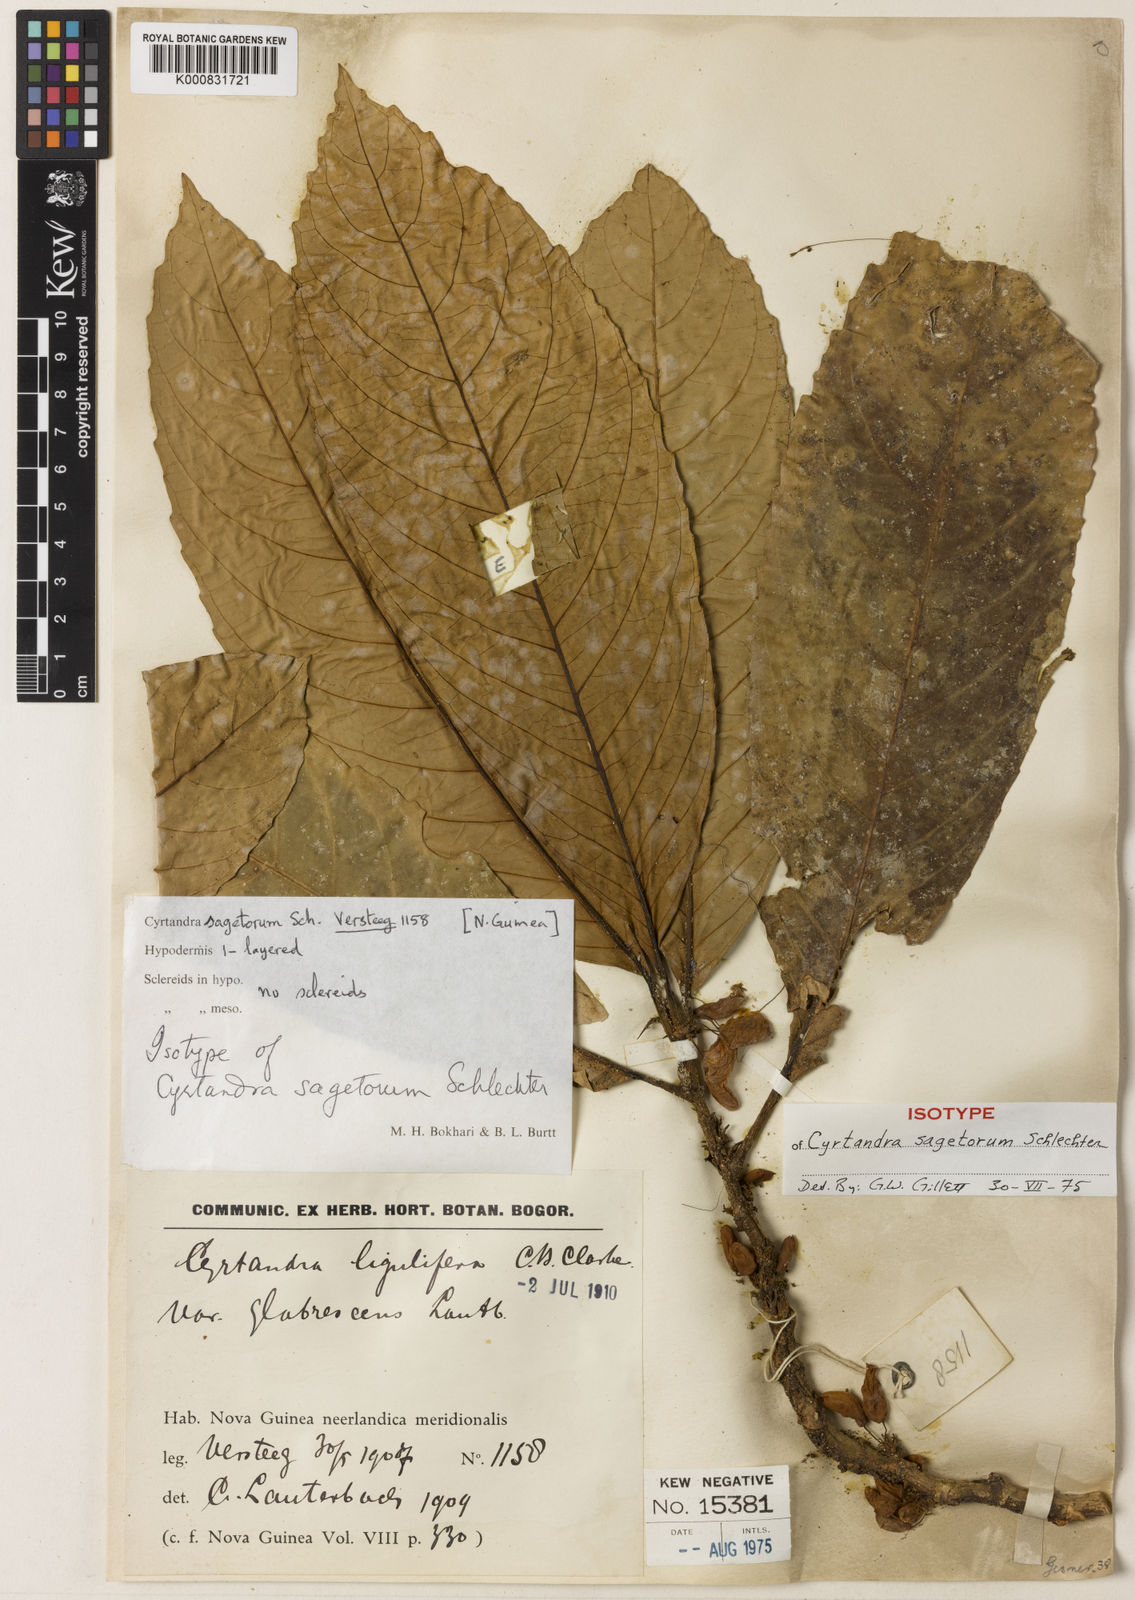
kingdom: Plantae
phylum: Tracheophyta
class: Magnoliopsida
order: Lamiales
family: Gesneriaceae
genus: Cyrtandra
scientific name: Cyrtandra sagetorum
